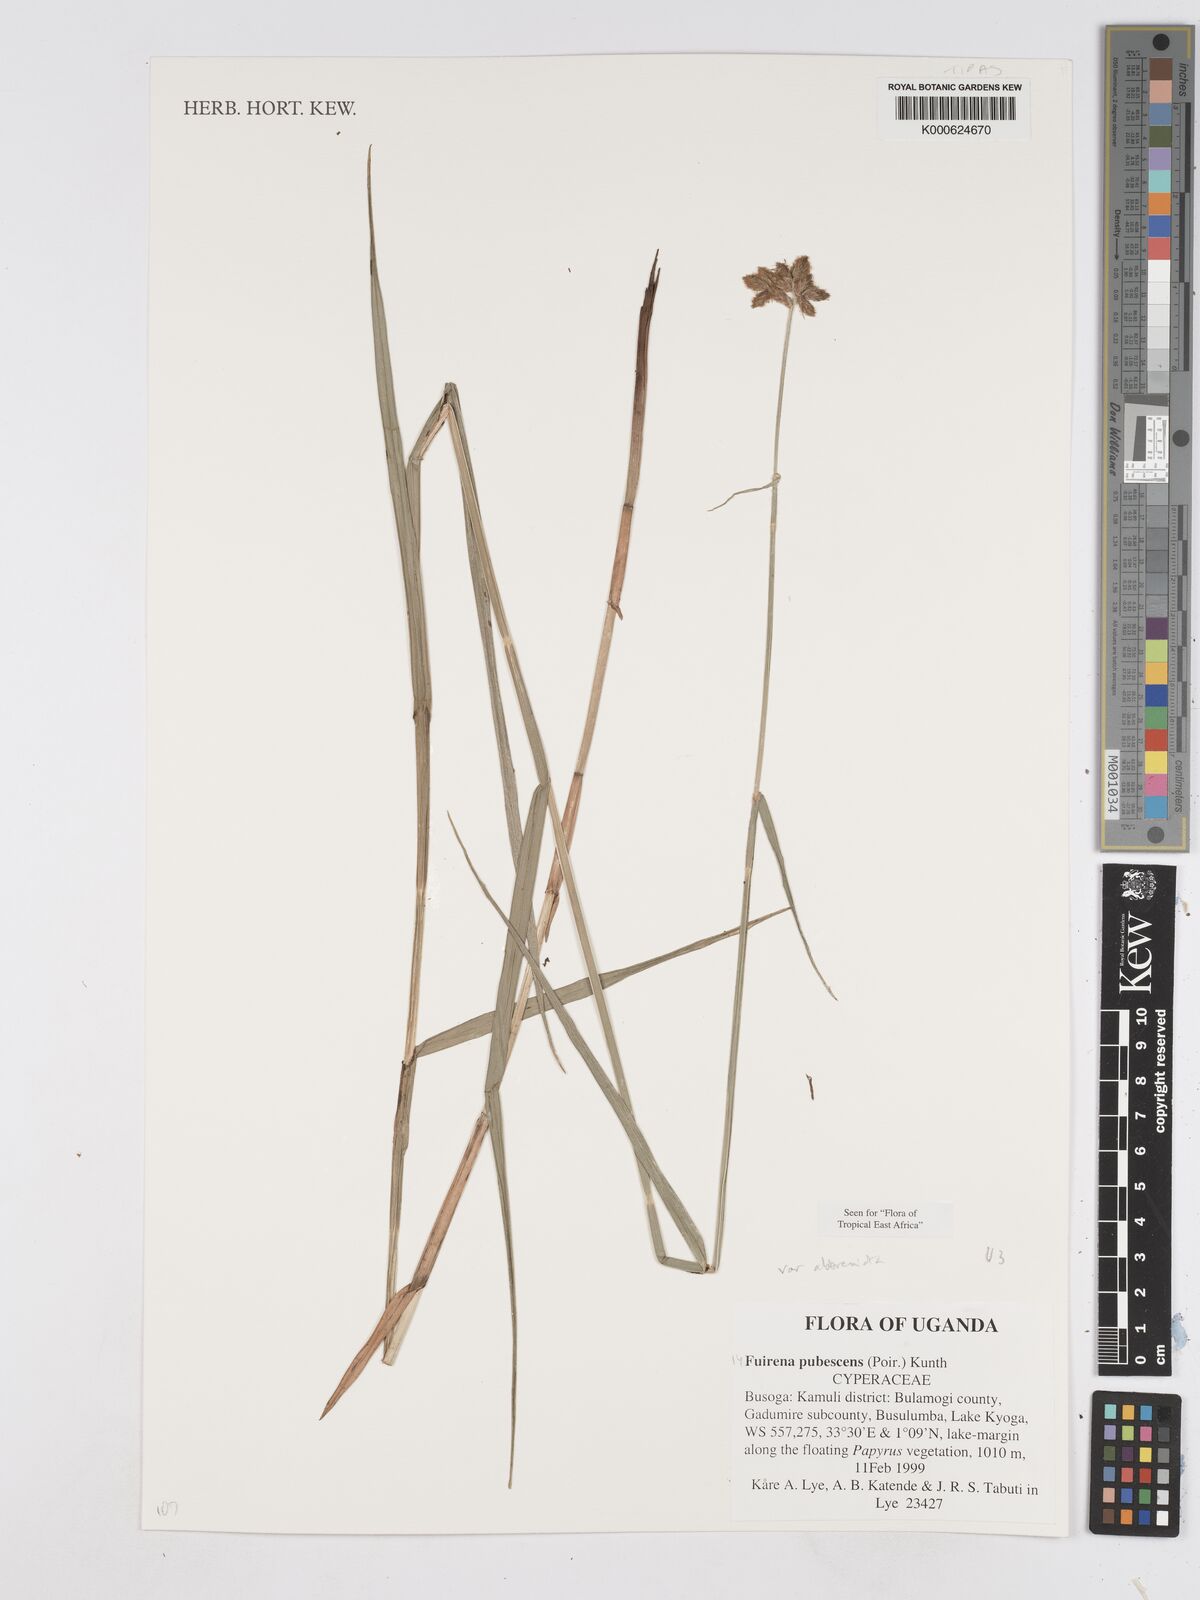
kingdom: Plantae
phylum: Tracheophyta
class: Liliopsida
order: Poales
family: Cyperaceae
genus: Fuirena
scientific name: Fuirena pubescens
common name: Hairy sedge
